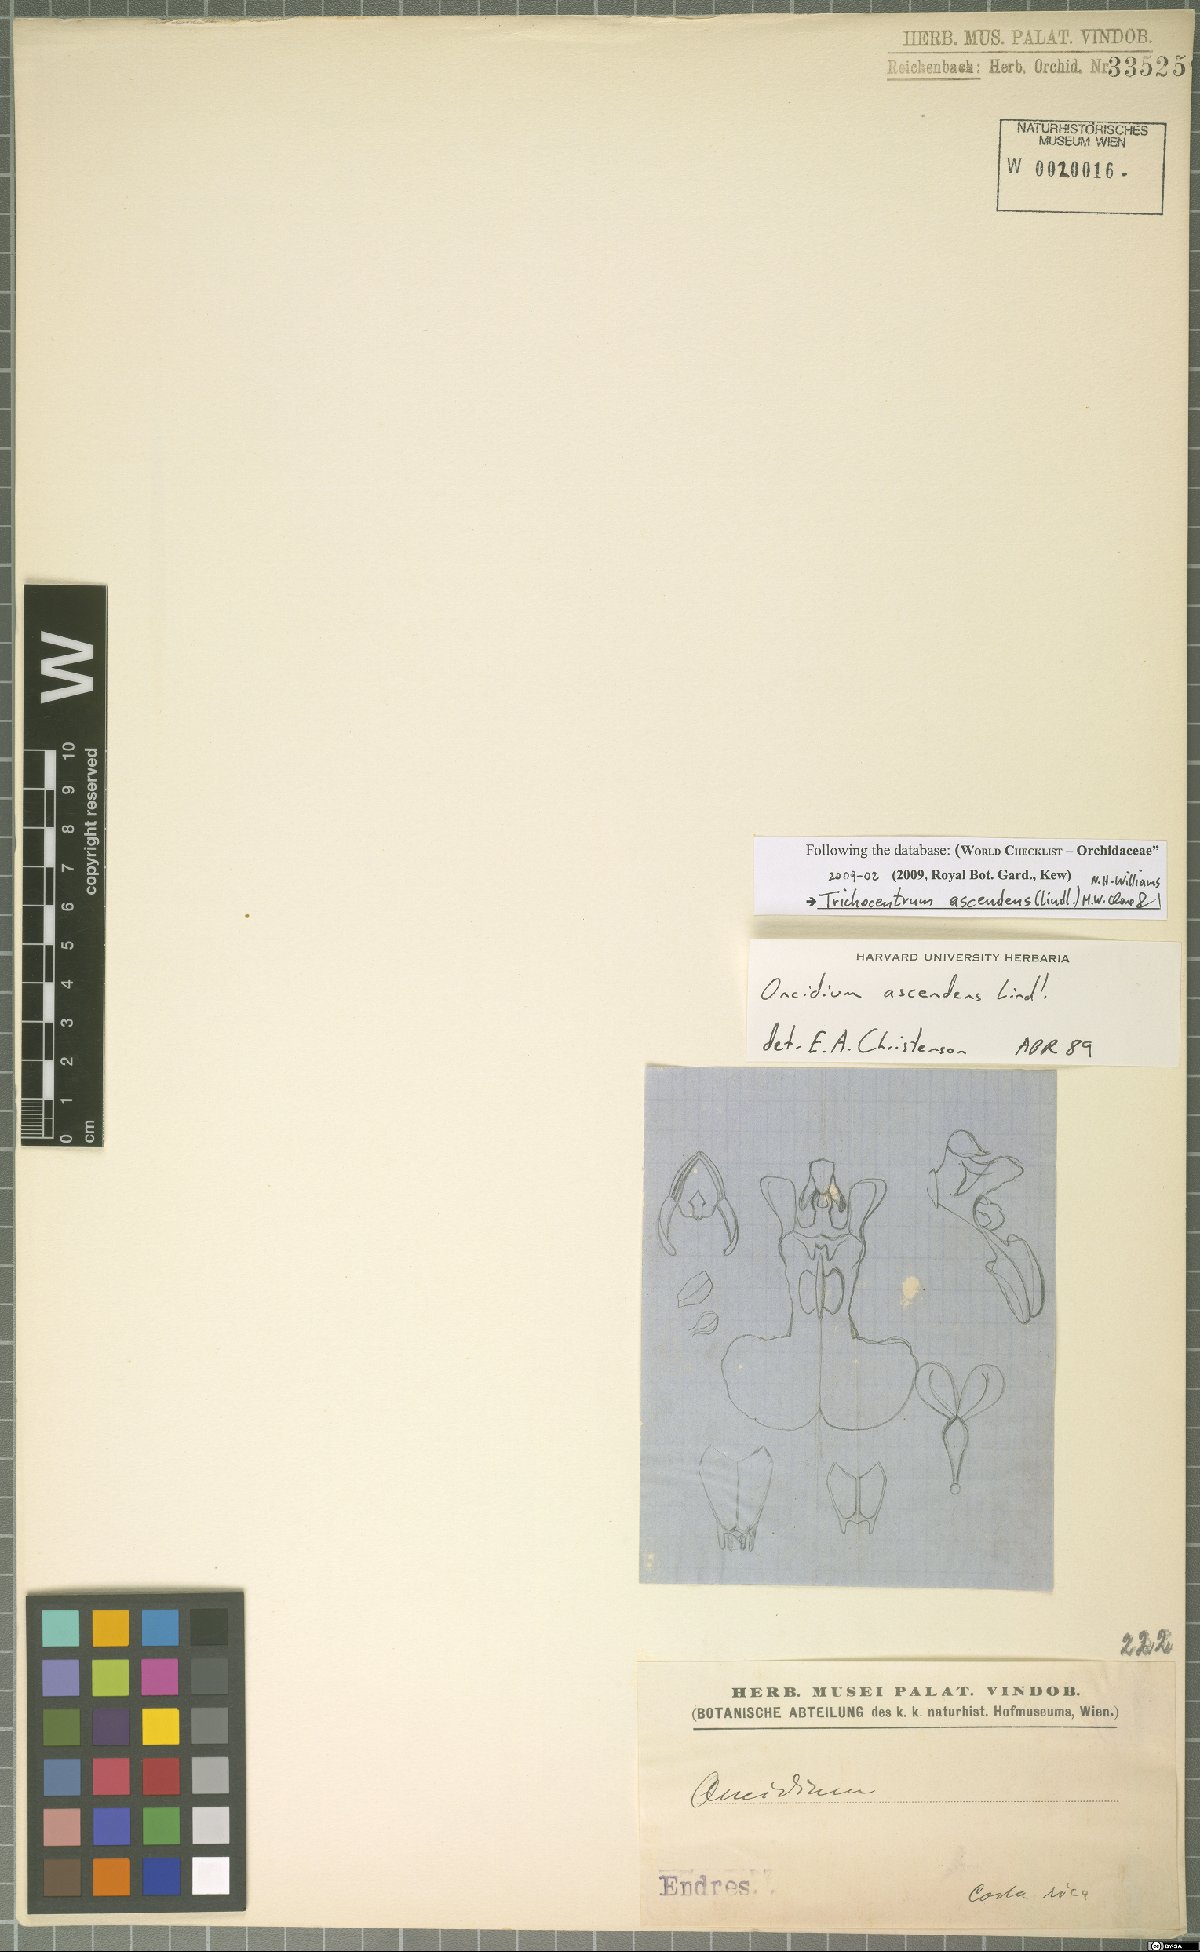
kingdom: Plantae
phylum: Tracheophyta
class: Liliopsida
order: Asparagales
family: Orchidaceae
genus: Trichocentrum
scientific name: Trichocentrum ascendens
